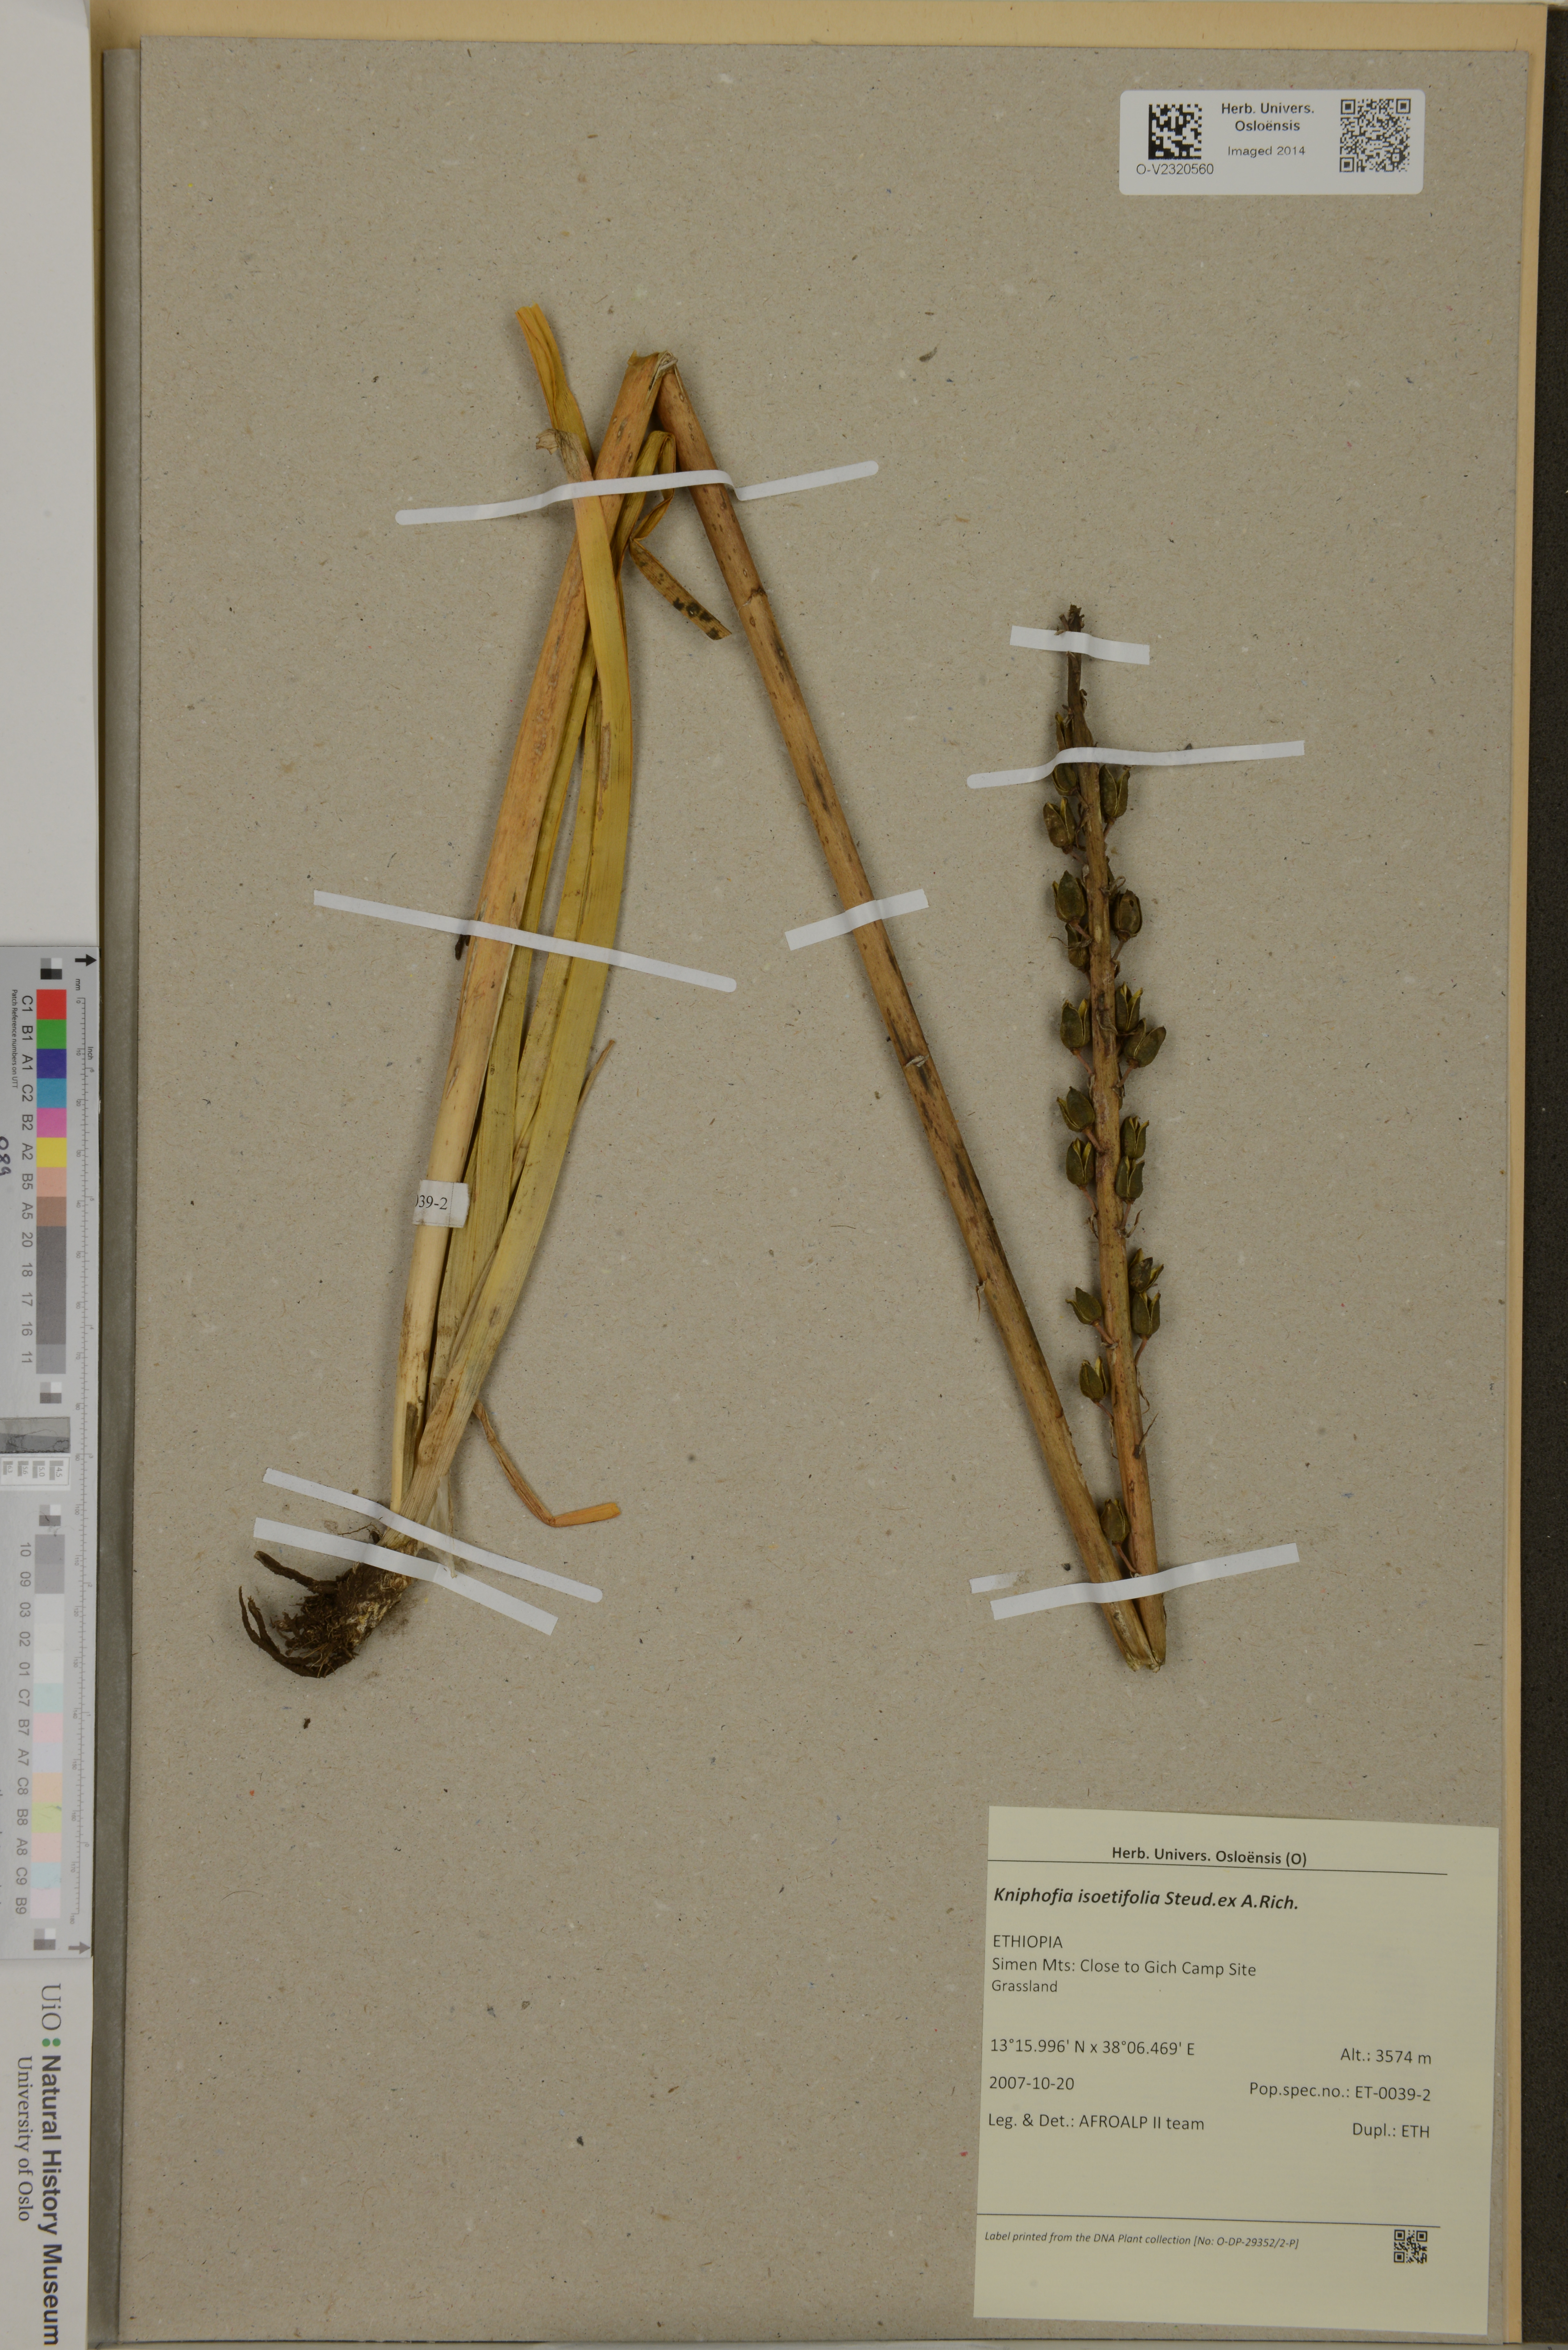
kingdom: Plantae
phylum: Tracheophyta
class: Liliopsida
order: Asparagales
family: Asphodelaceae
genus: Kniphofia
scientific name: Kniphofia isoetifolia
